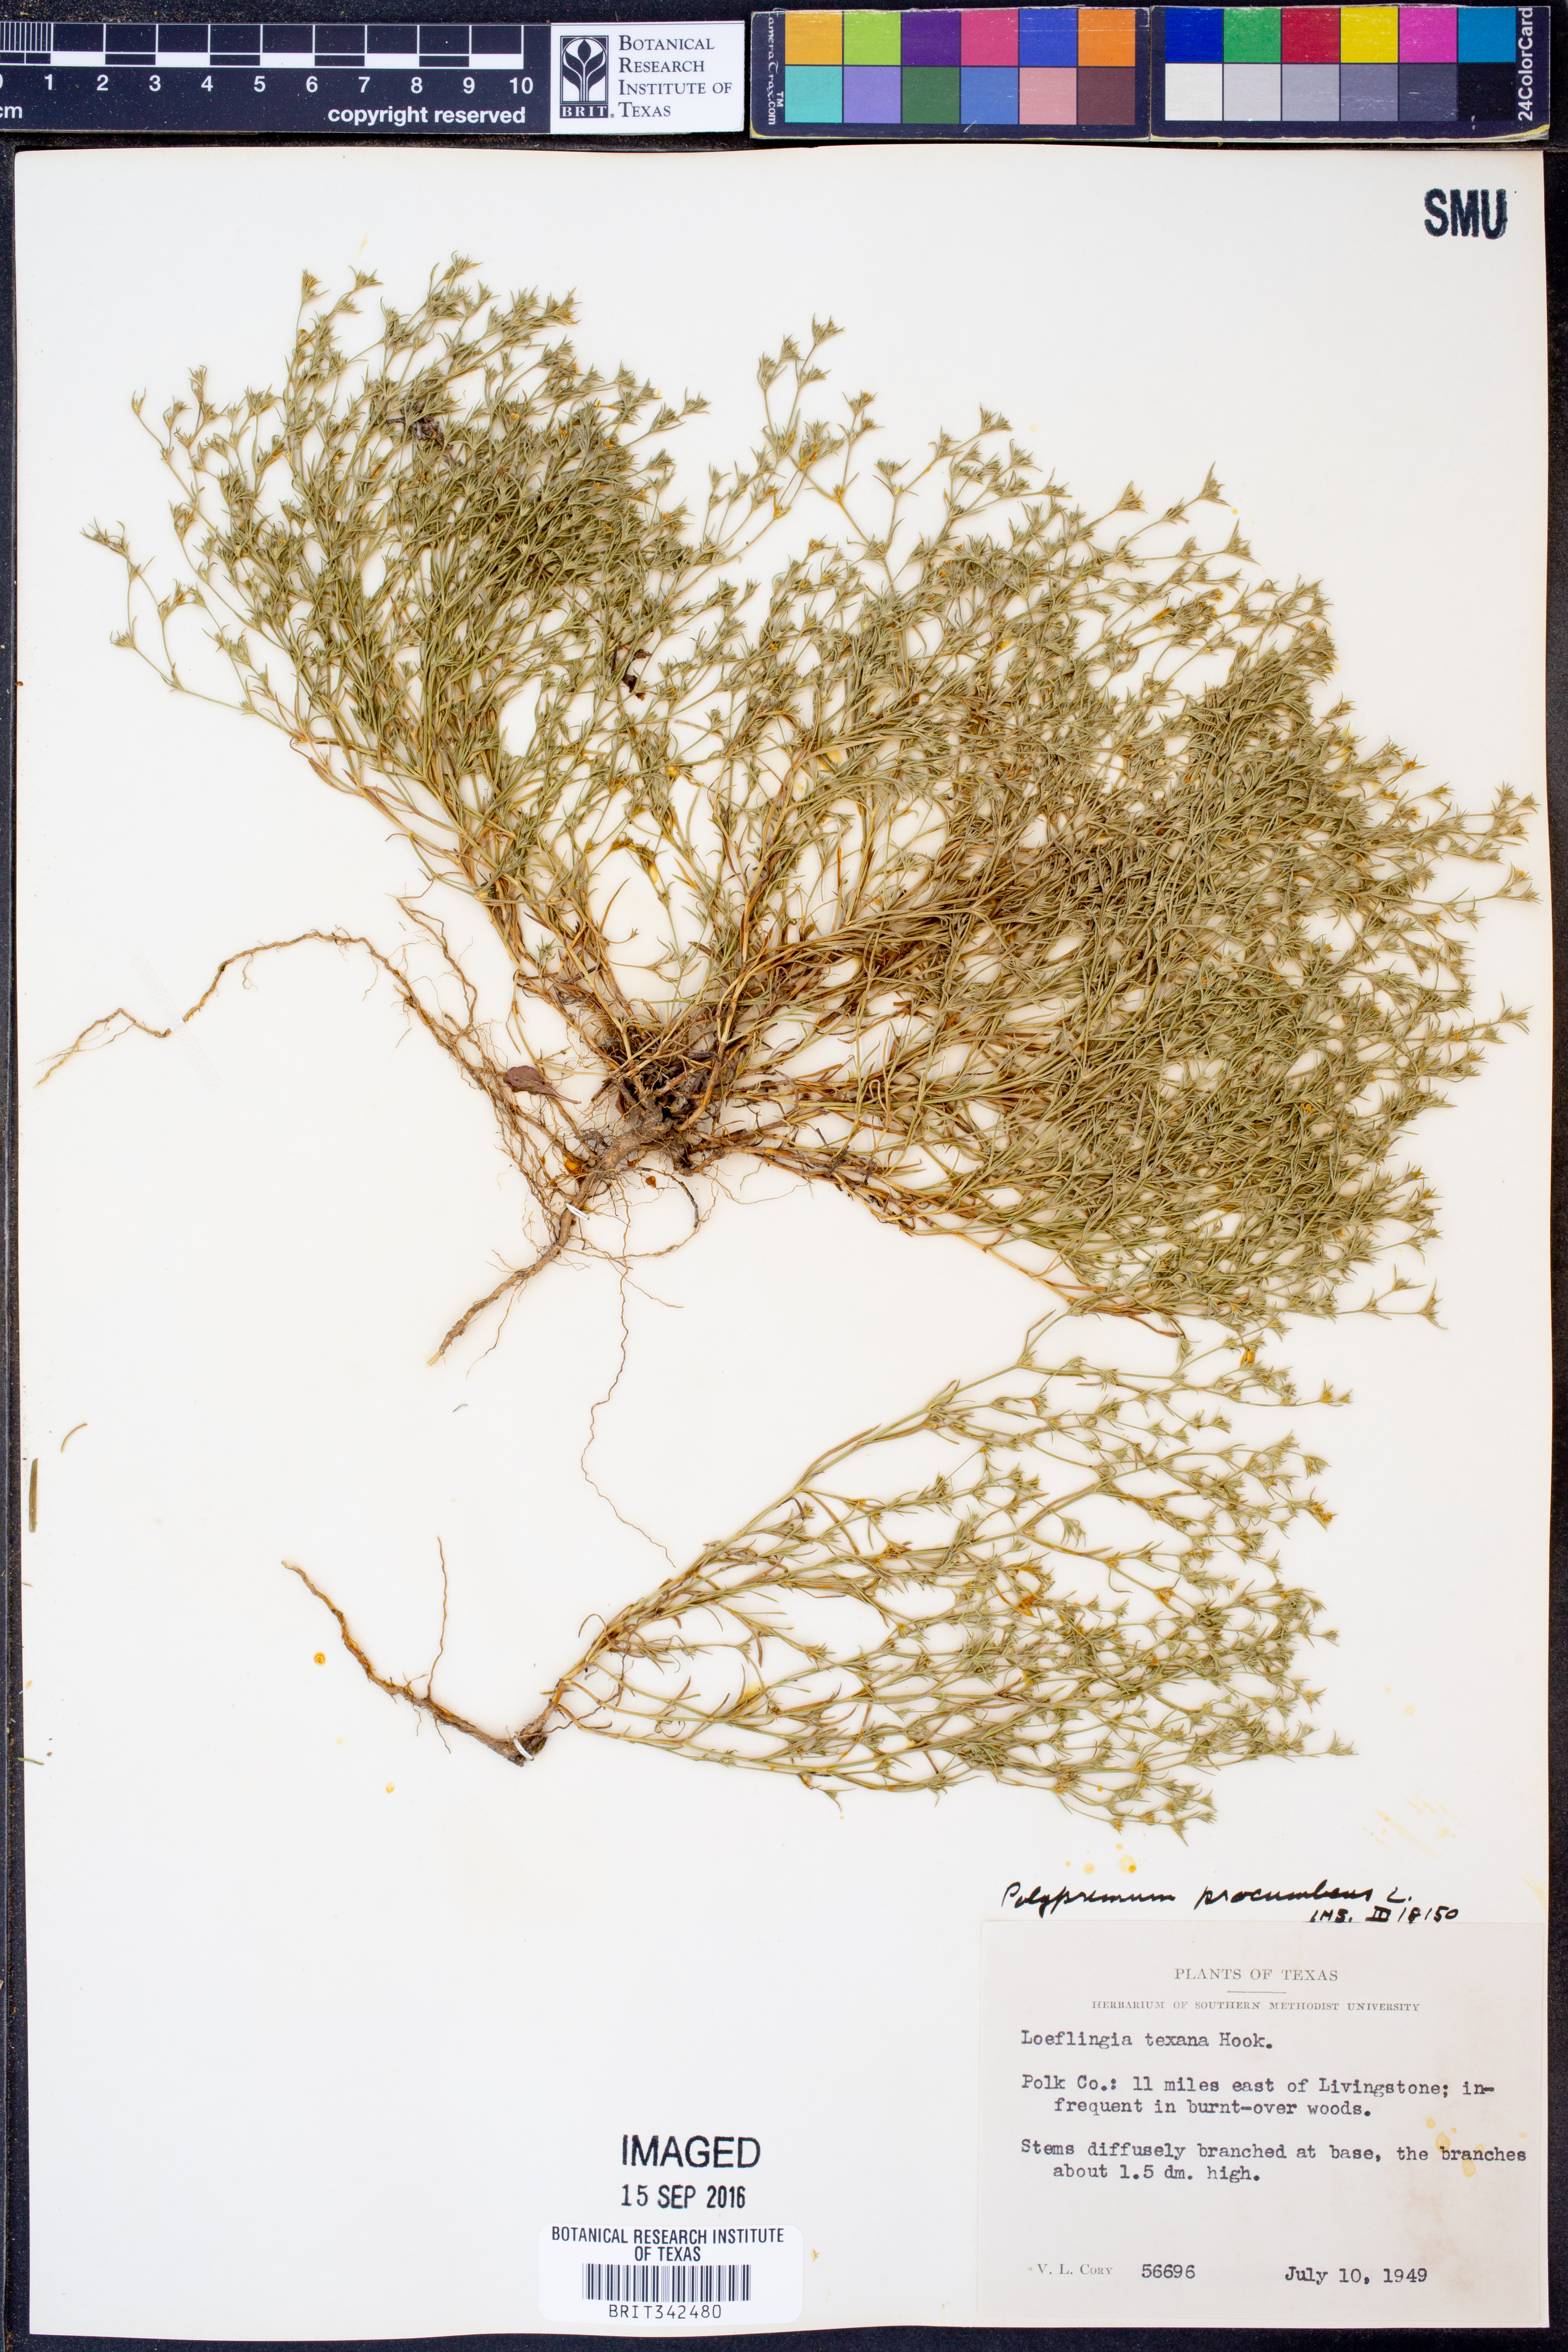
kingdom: Plantae
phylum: Tracheophyta
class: Magnoliopsida
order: Lamiales
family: Tetrachondraceae
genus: Polypremum
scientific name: Polypremum procumbens
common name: Juniper-leaf
